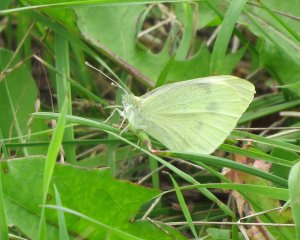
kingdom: Animalia
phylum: Arthropoda
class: Insecta
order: Lepidoptera
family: Pieridae
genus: Pieris
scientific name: Pieris rapae
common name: Cabbage White
